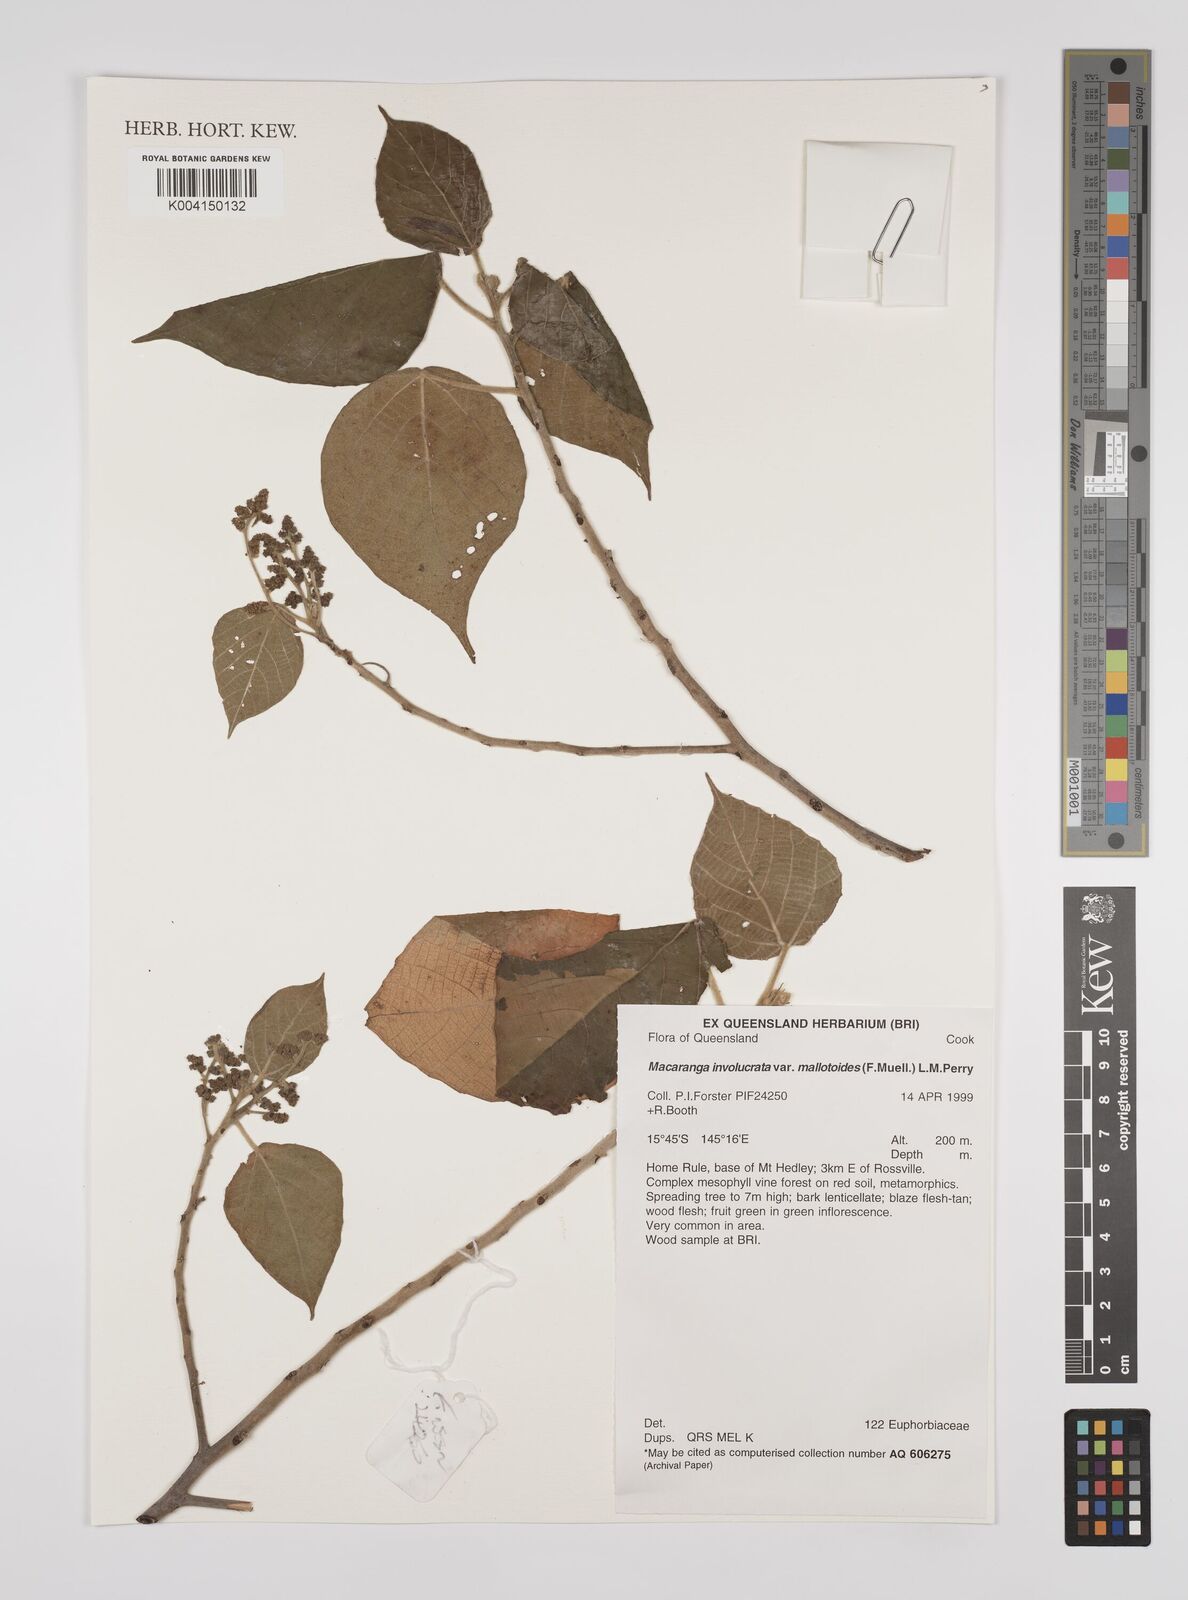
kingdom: Plantae
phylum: Tracheophyta
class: Magnoliopsida
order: Malpighiales
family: Euphorbiaceae
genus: Macaranga
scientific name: Macaranga involucrata
